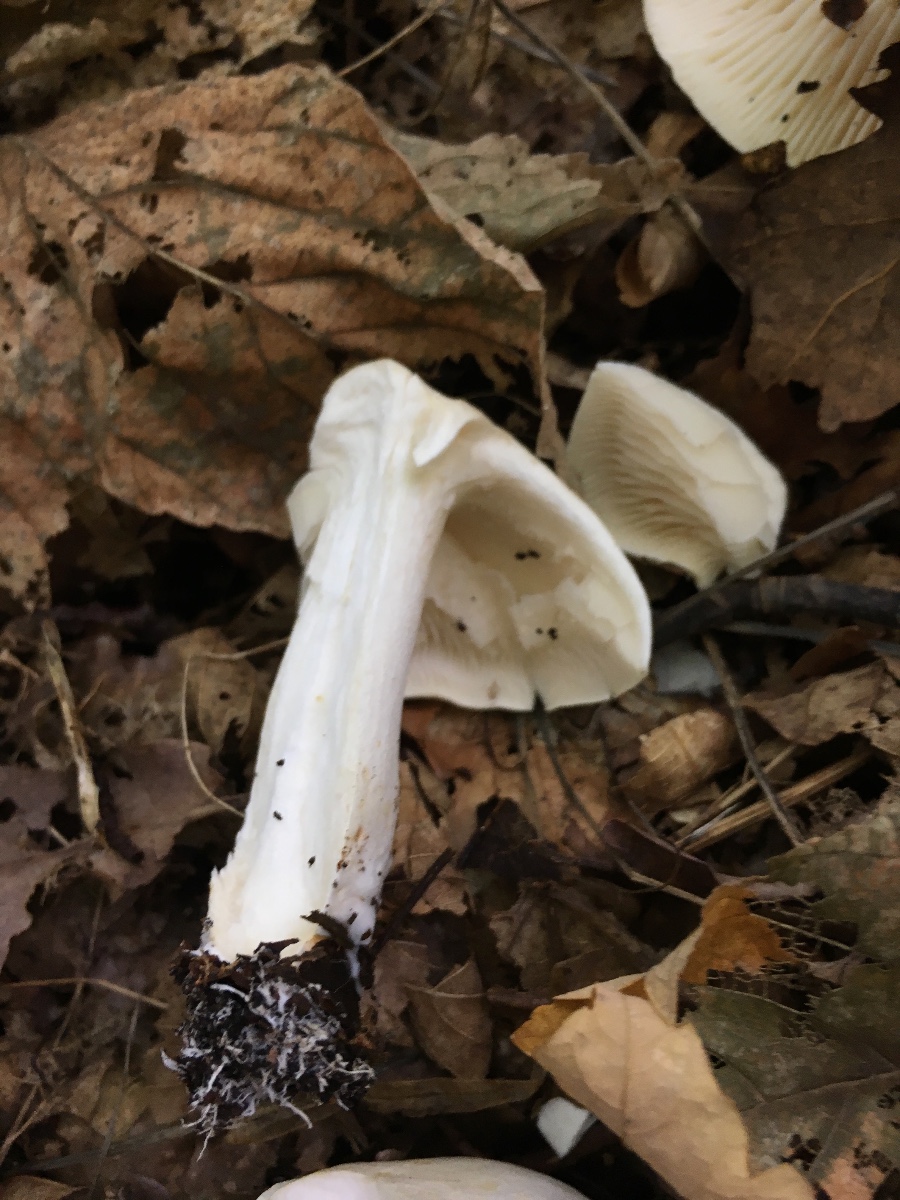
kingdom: Fungi
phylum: Basidiomycota
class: Agaricomycetes
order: Agaricales
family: Tricholomataceae
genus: Tricholoma
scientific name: Tricholoma album
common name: honning-ridderhat
